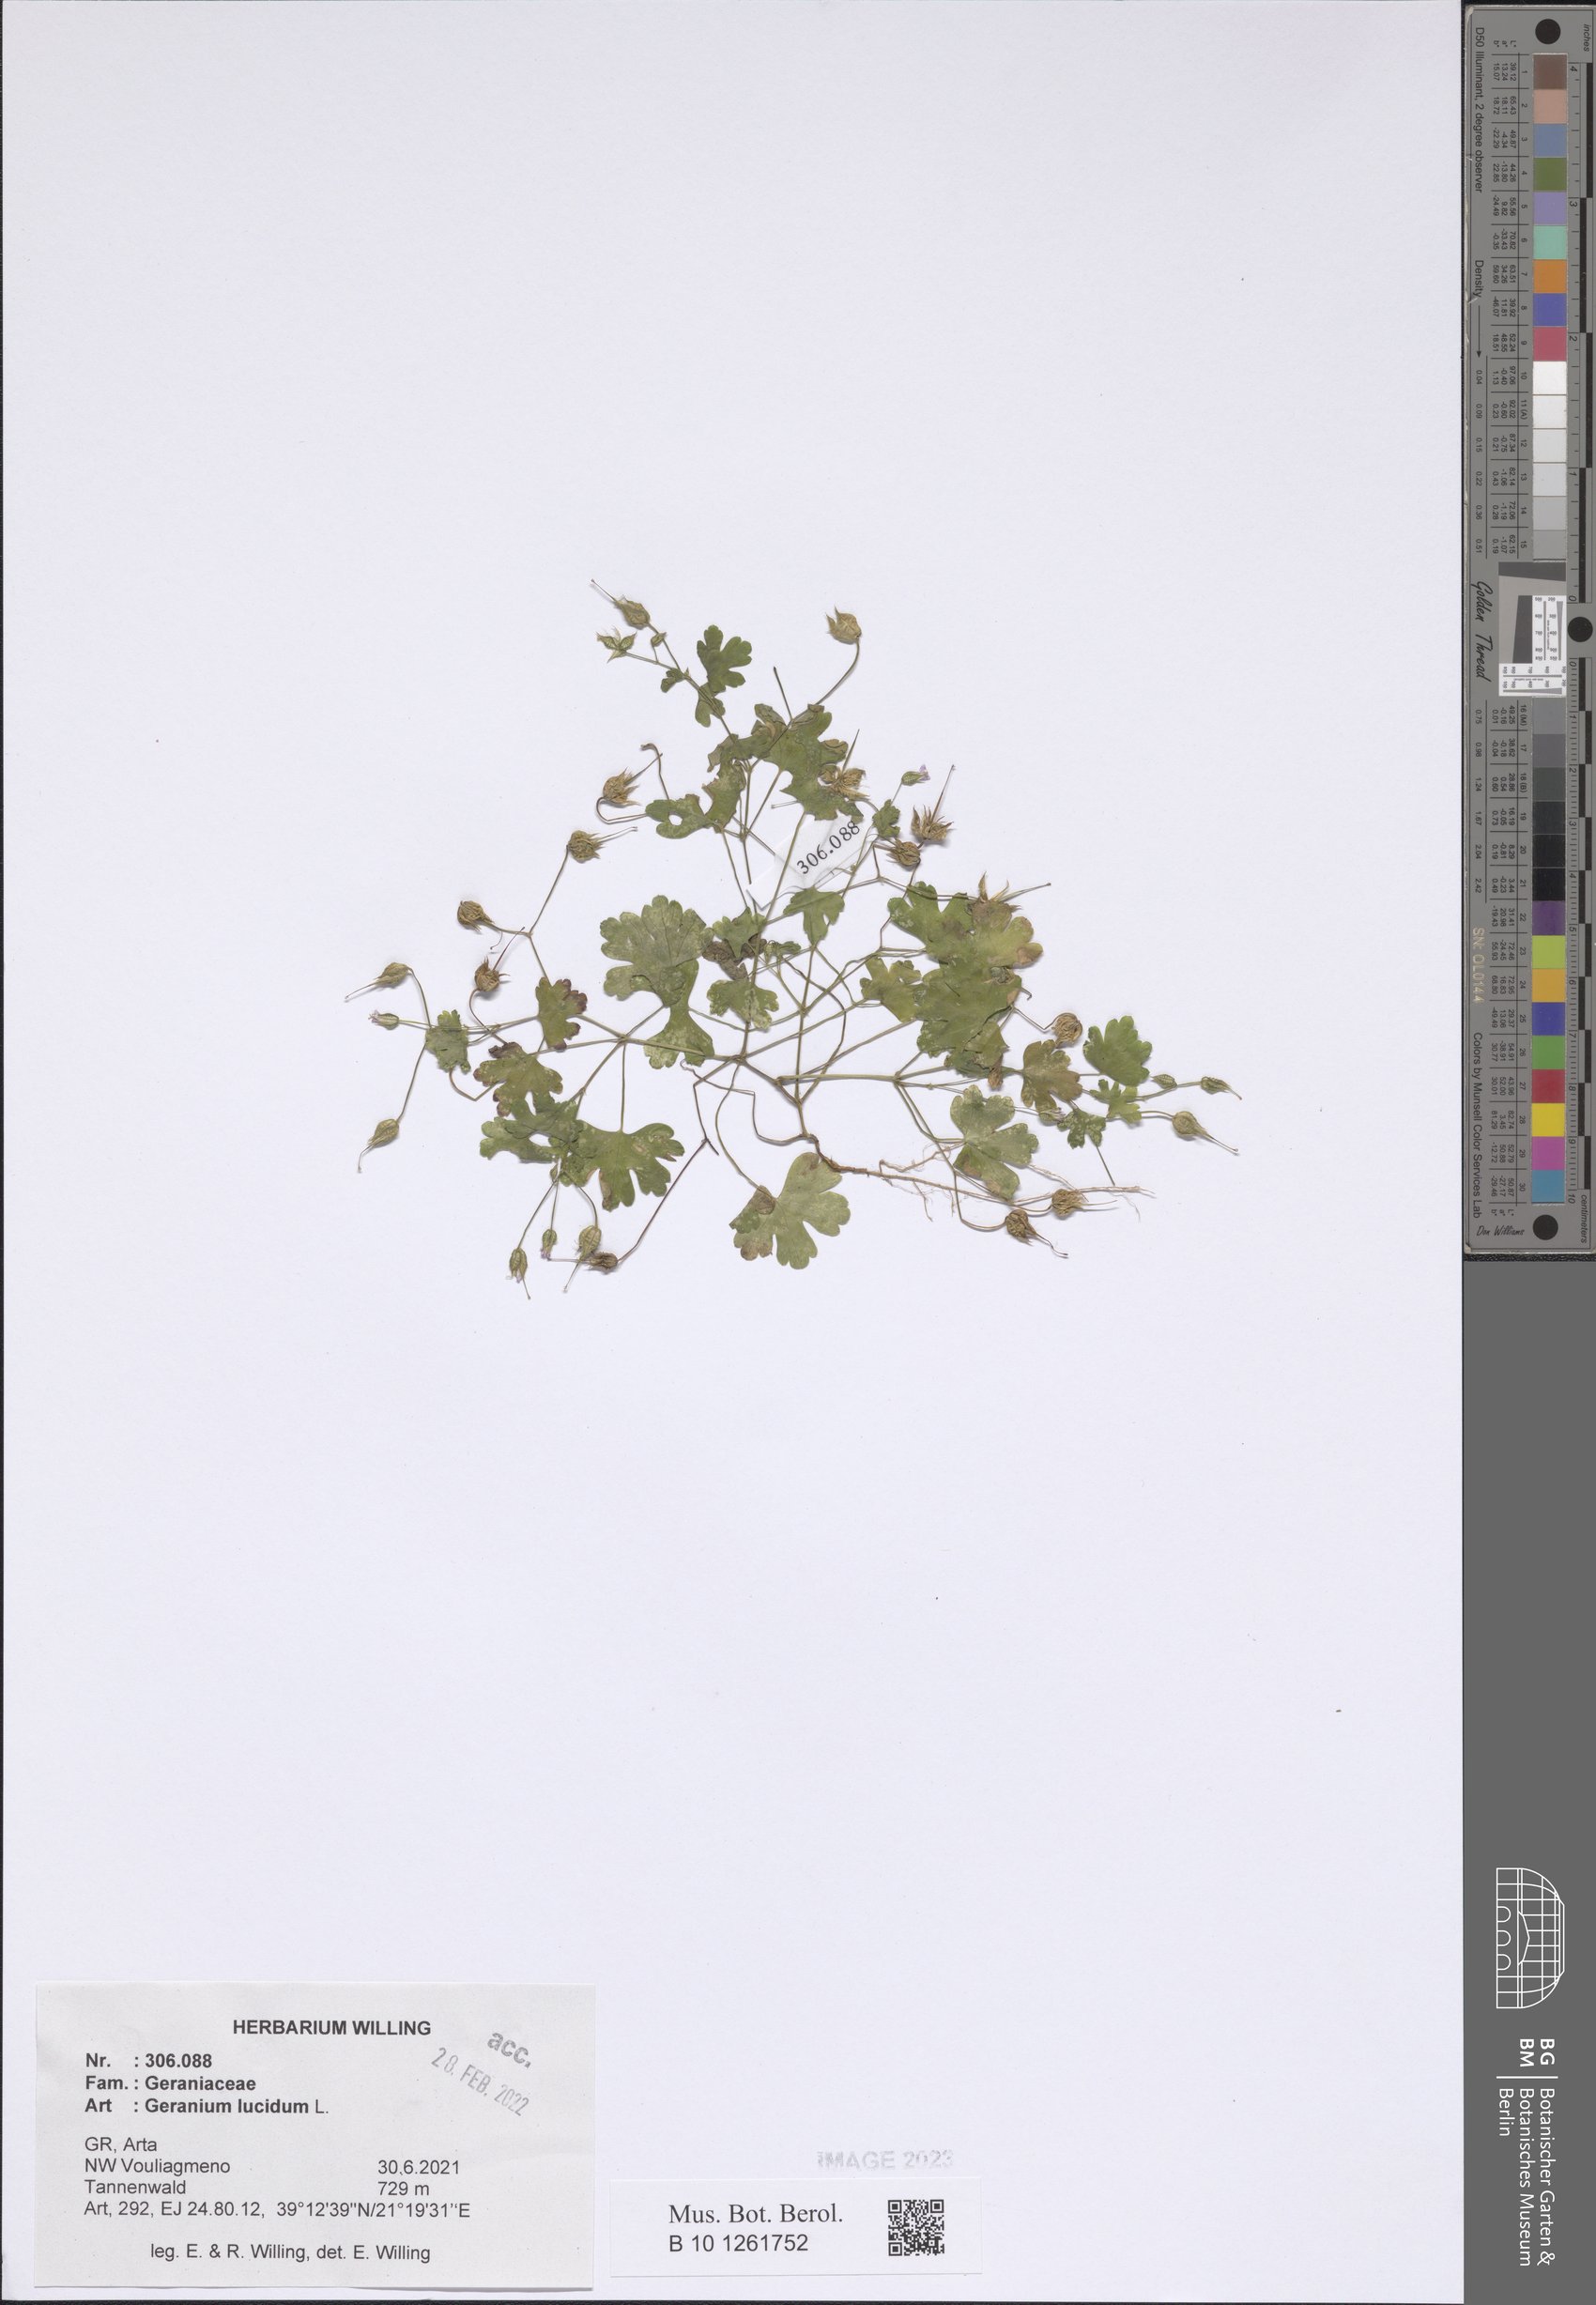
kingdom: Plantae
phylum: Tracheophyta
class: Magnoliopsida
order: Geraniales
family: Geraniaceae
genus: Geranium
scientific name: Geranium lucidum
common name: Shining crane's-bill
